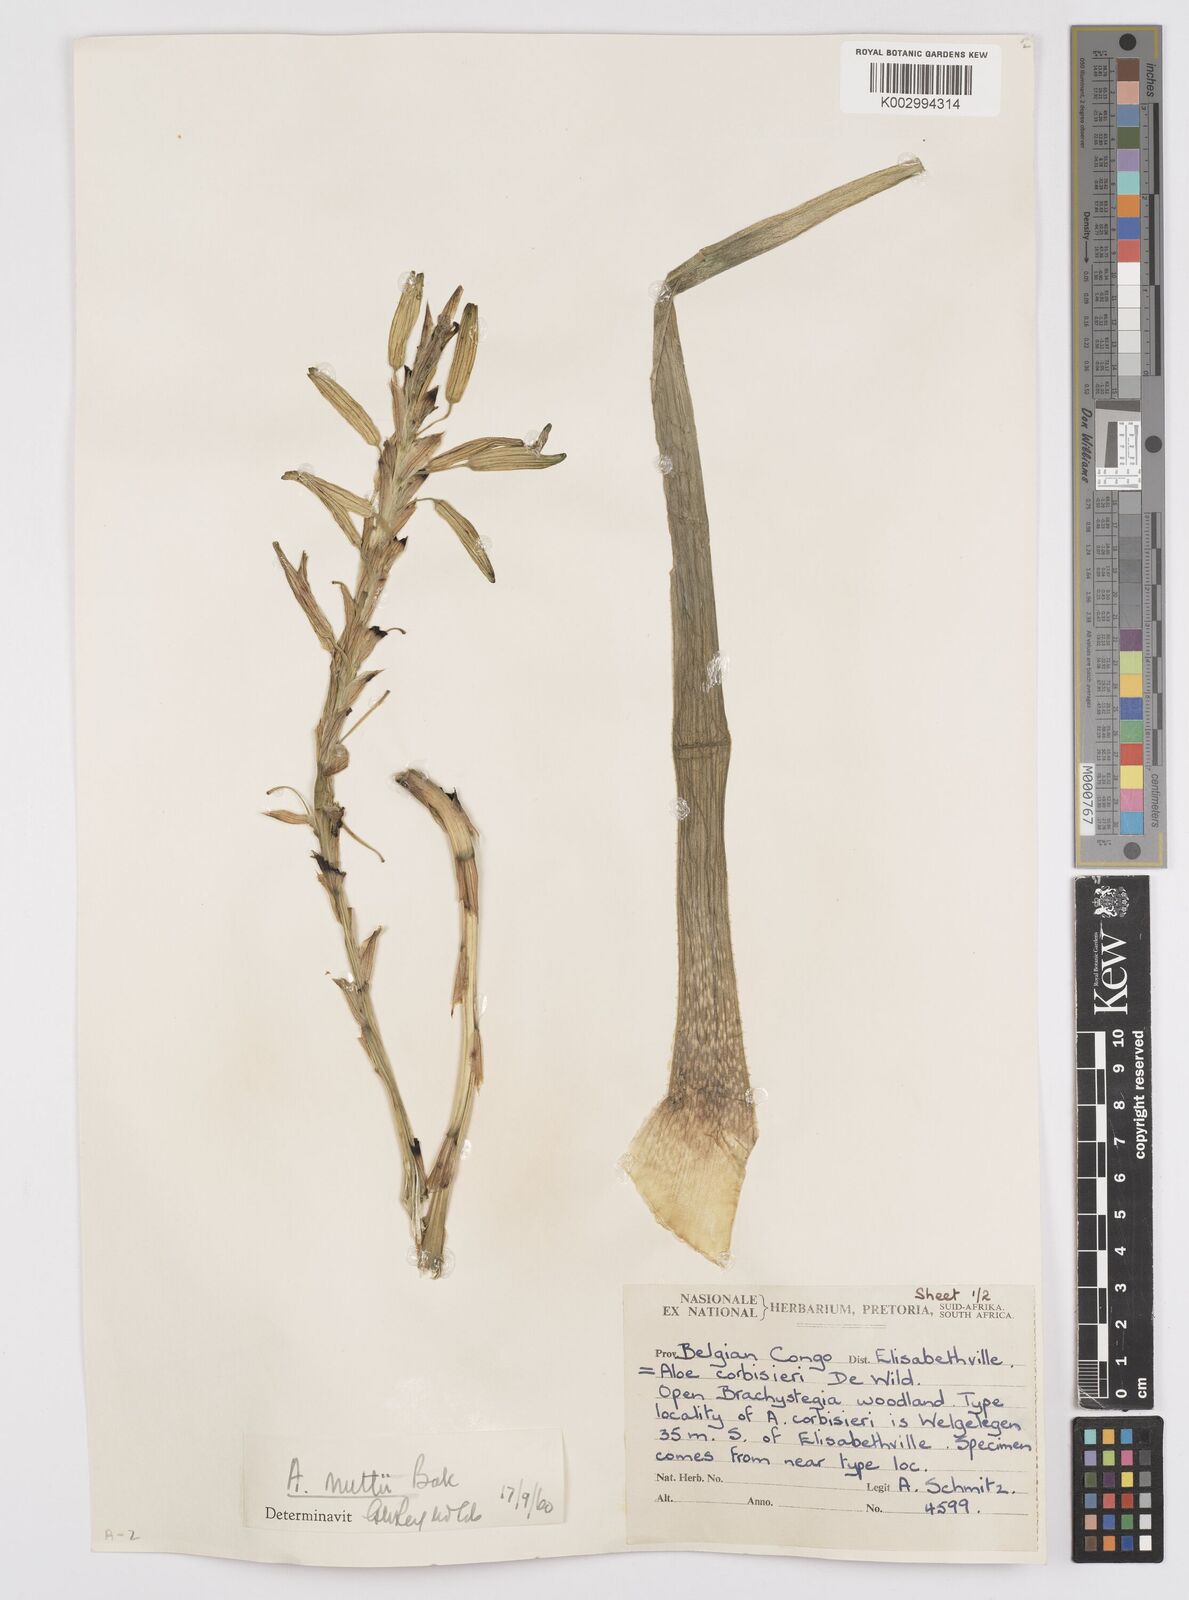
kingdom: Plantae
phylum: Tracheophyta
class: Liliopsida
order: Asparagales
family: Asphodelaceae
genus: Aloe
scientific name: Aloe nuttii
